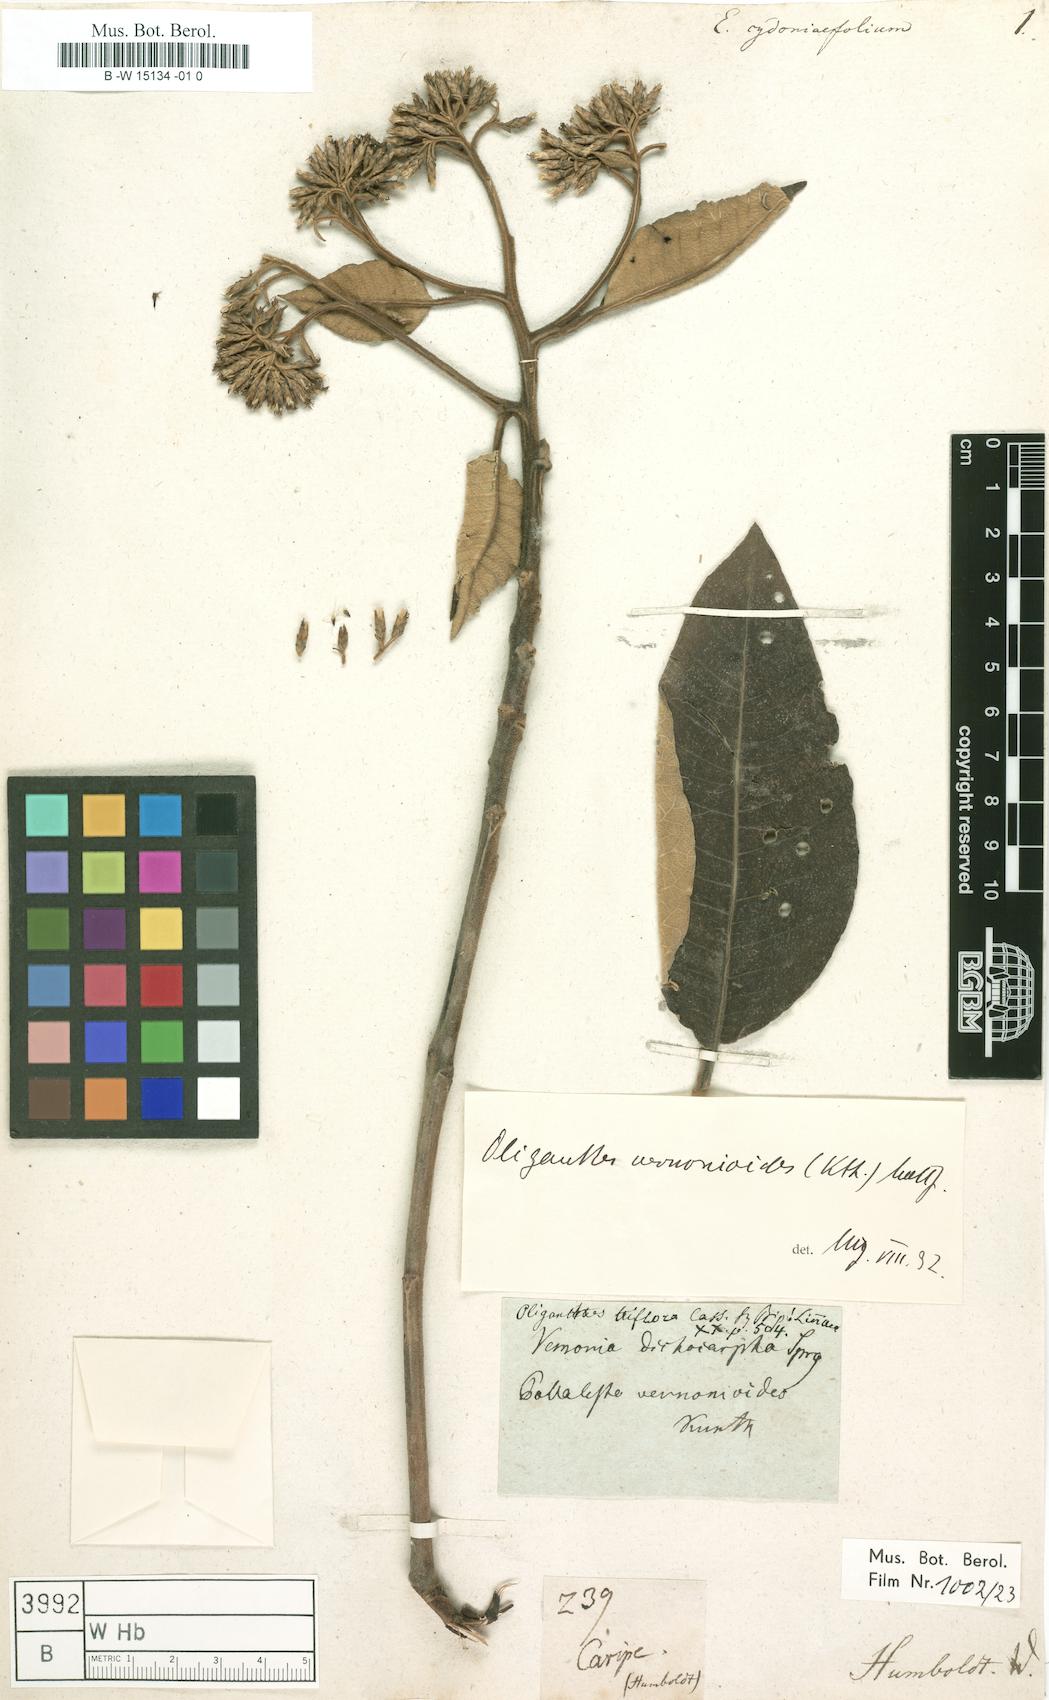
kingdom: Plantae
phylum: Tracheophyta
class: Magnoliopsida
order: Asterales
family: Asteraceae
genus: Piptocoma
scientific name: Piptocoma vernonioides
